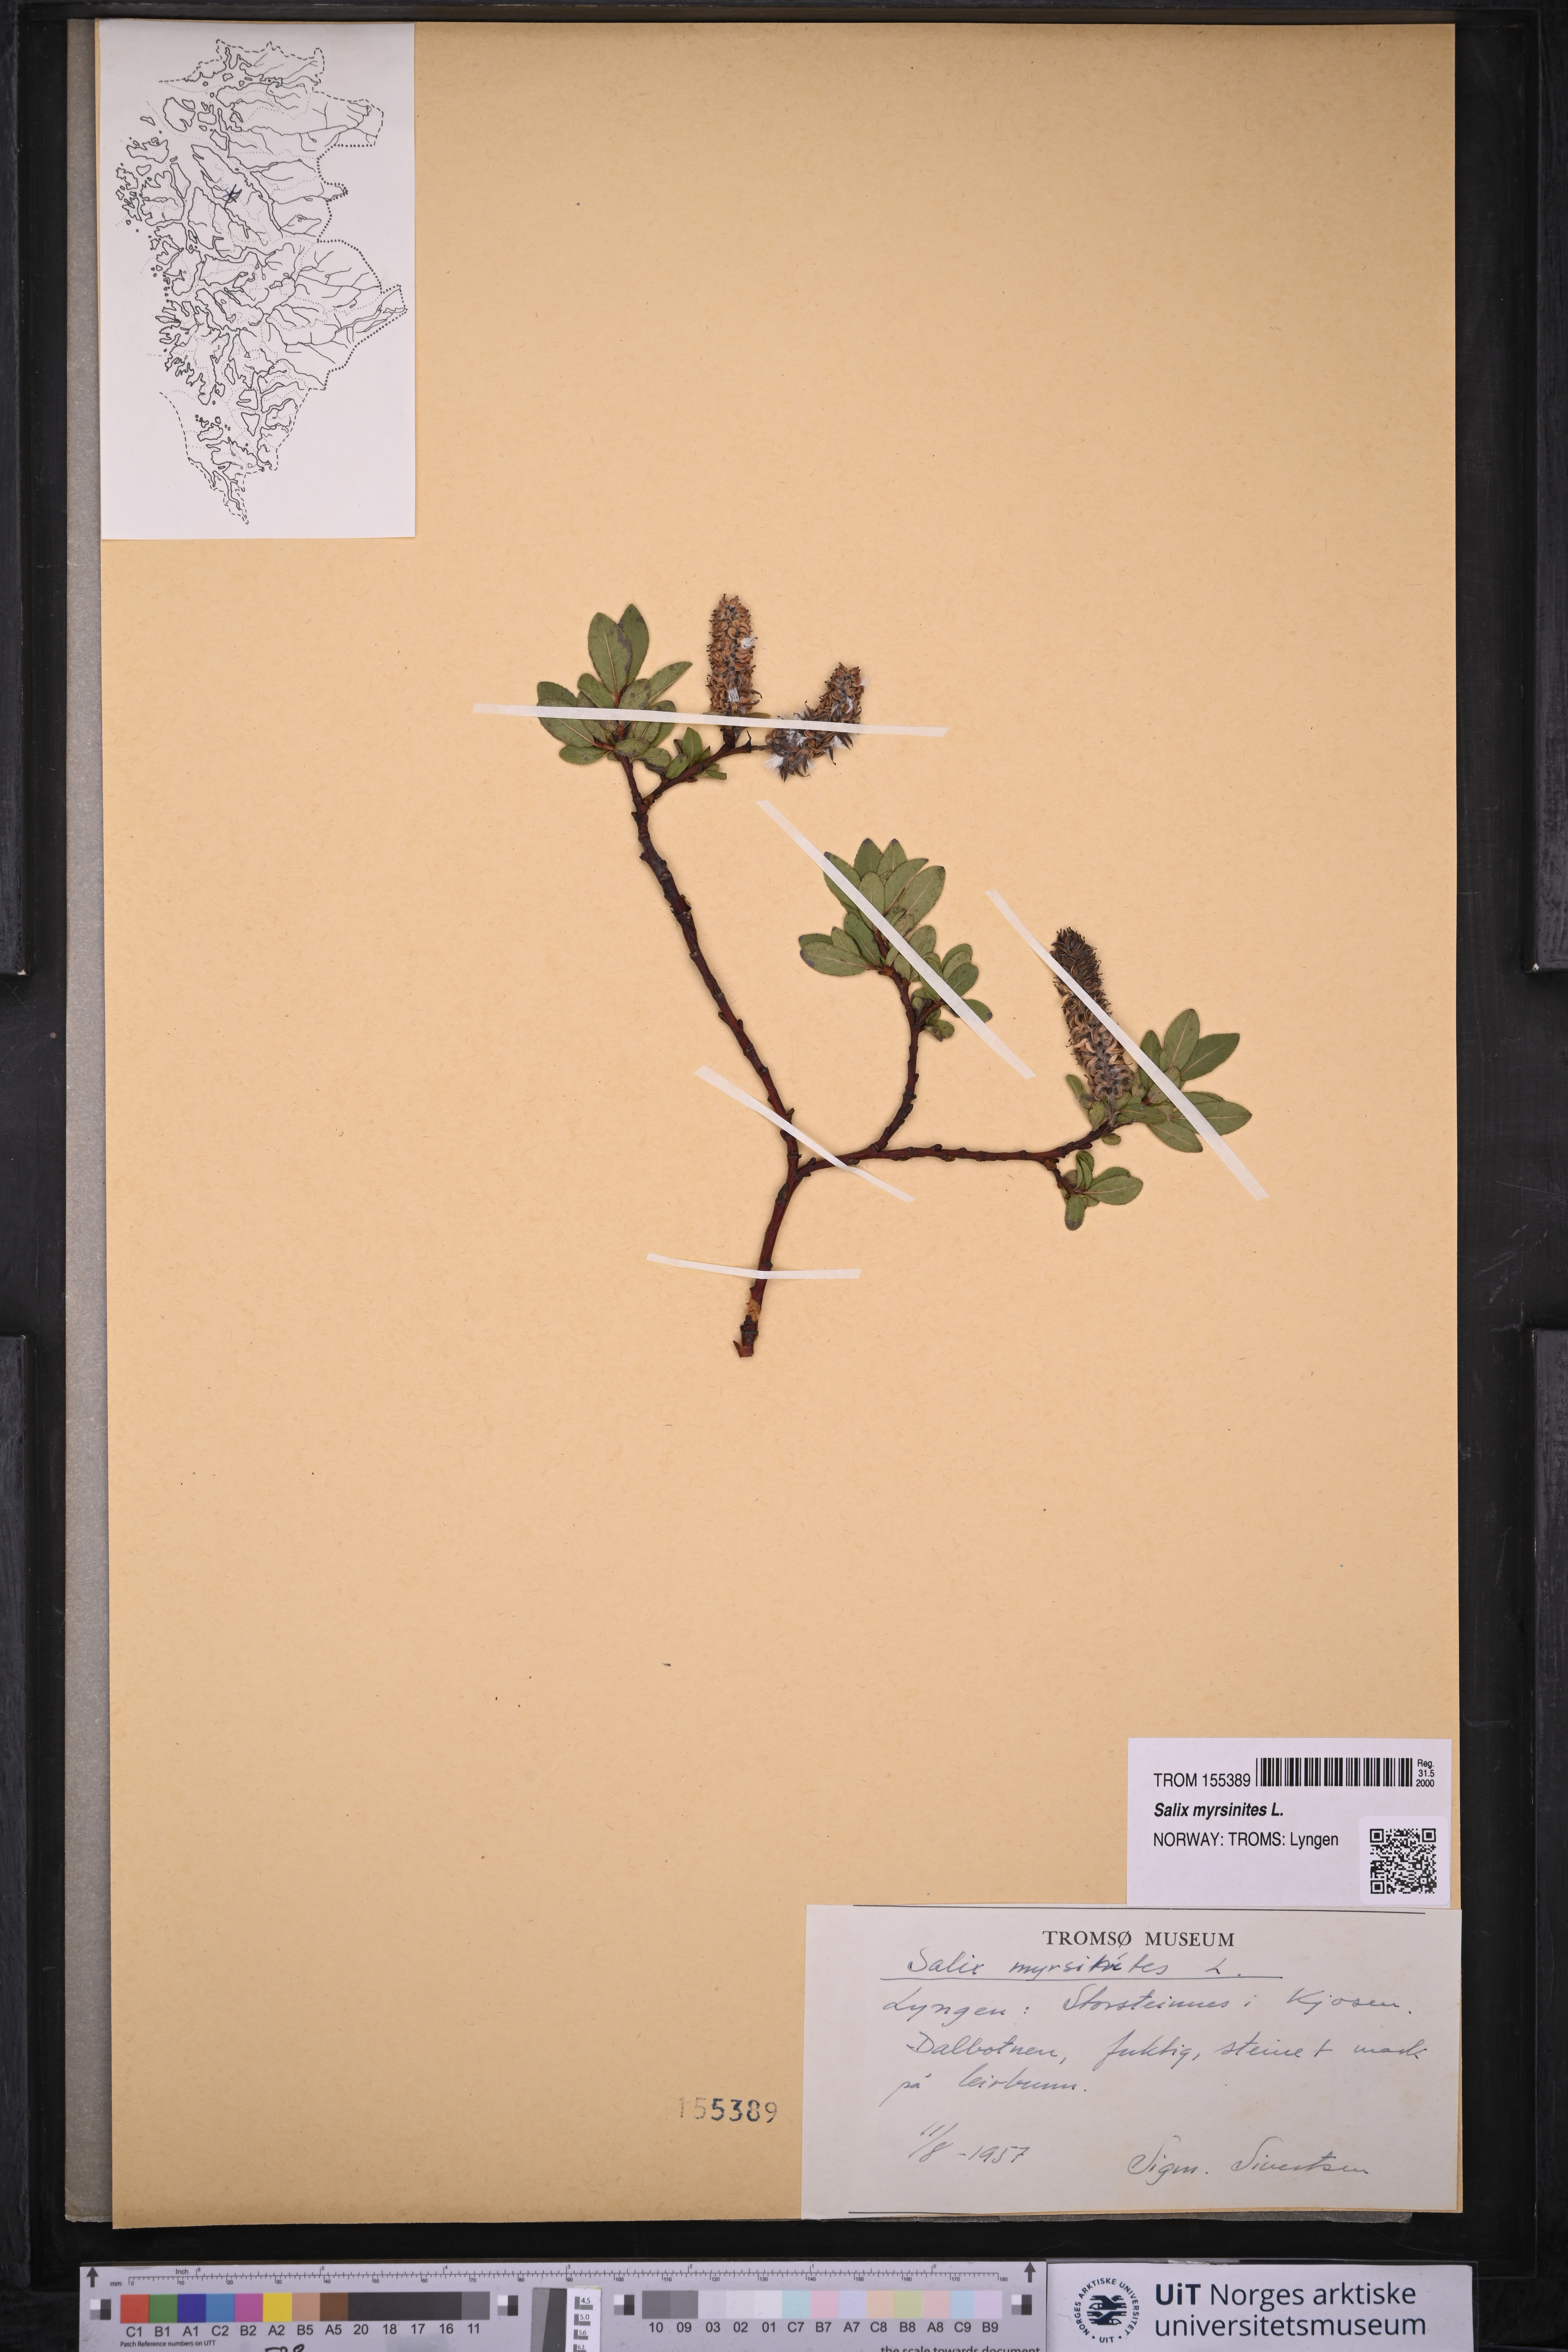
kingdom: Plantae
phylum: Tracheophyta
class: Magnoliopsida
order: Malpighiales
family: Salicaceae
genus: Salix
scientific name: Salix myrsinites
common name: Myrtle willow
